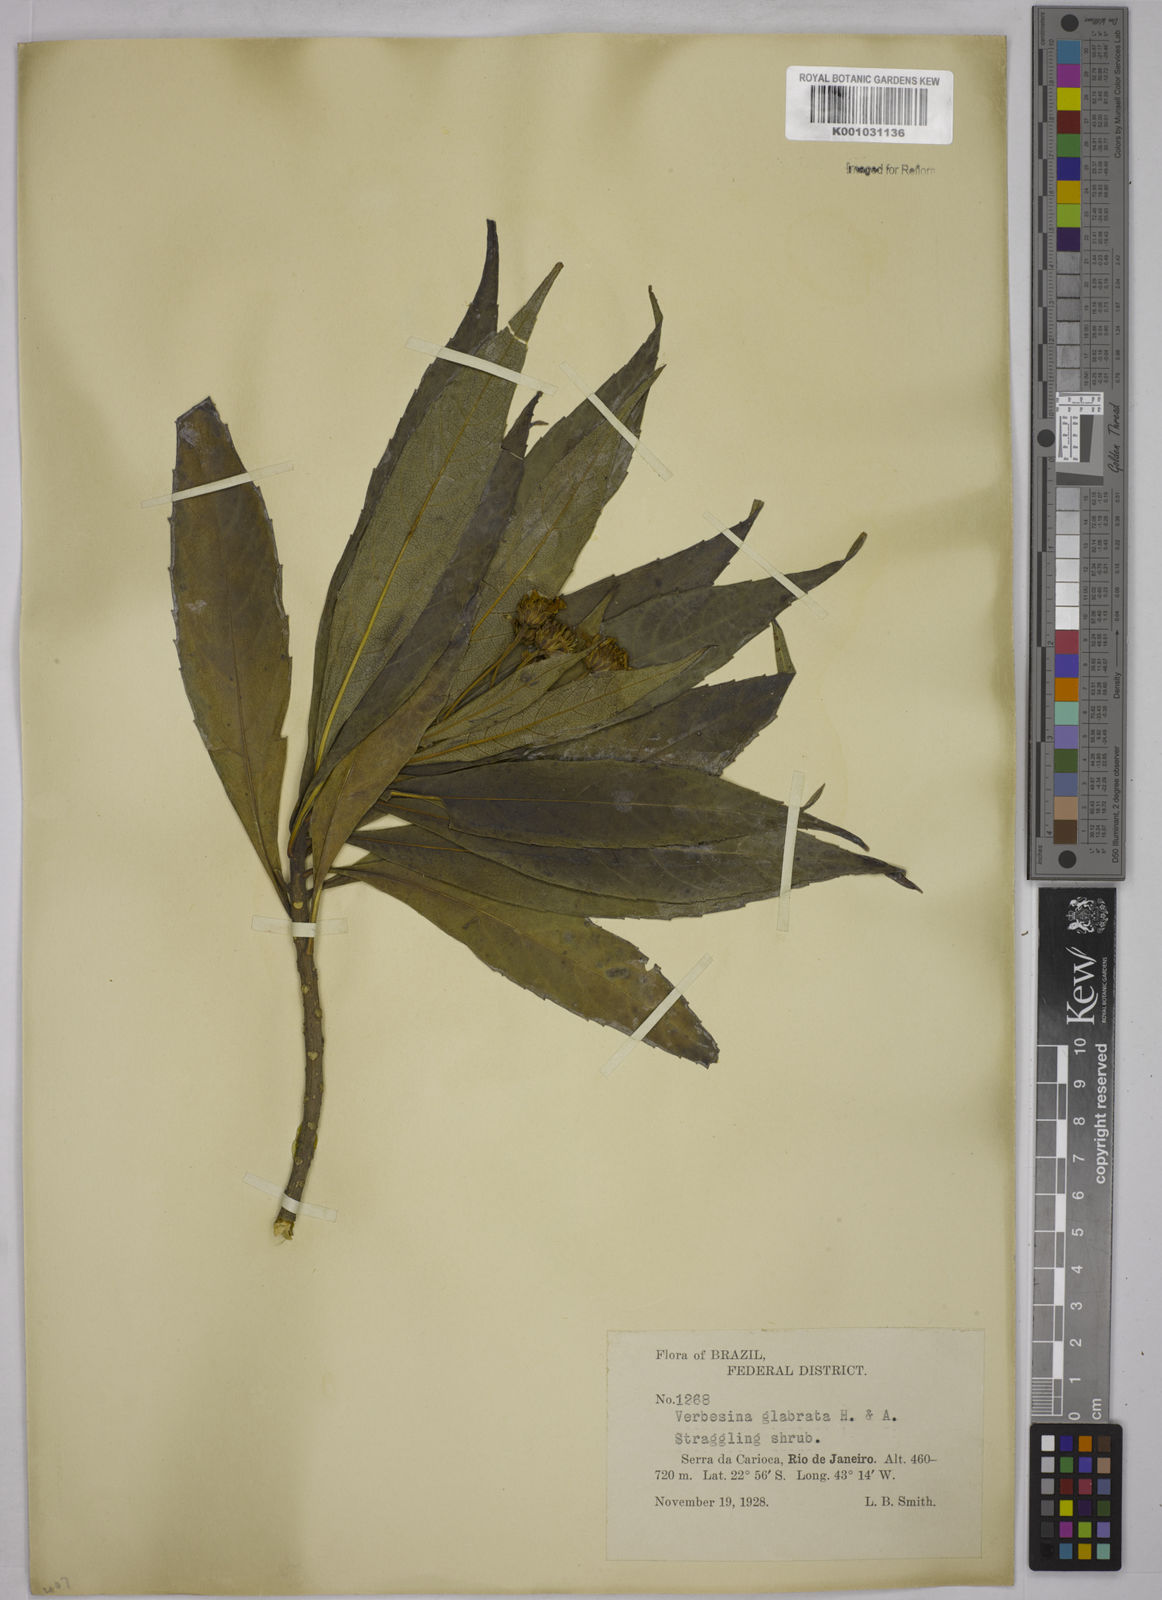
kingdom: Plantae
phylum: Tracheophyta
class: Magnoliopsida
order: Asterales
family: Asteraceae
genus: Verbesina
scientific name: Verbesina glabrata
